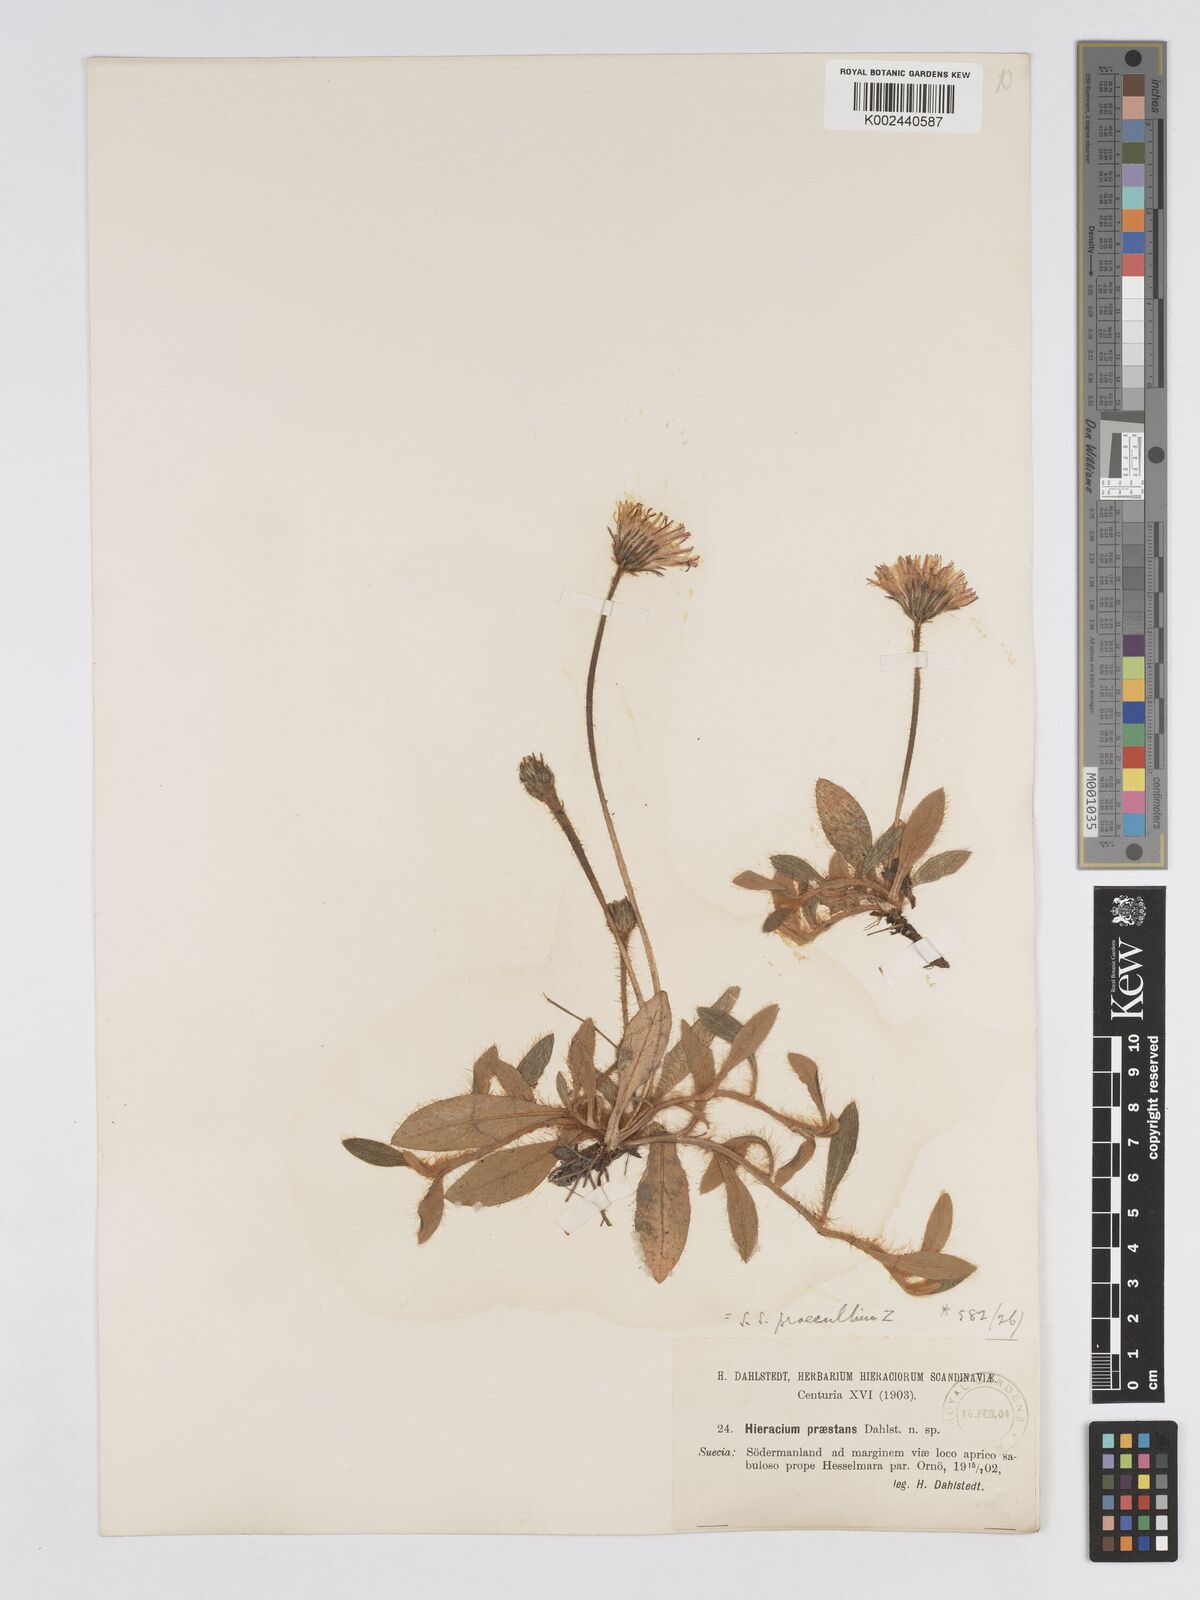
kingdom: Plantae
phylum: Tracheophyta
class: Magnoliopsida
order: Asterales
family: Asteraceae
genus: Pilosella
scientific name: Pilosella longisquama
